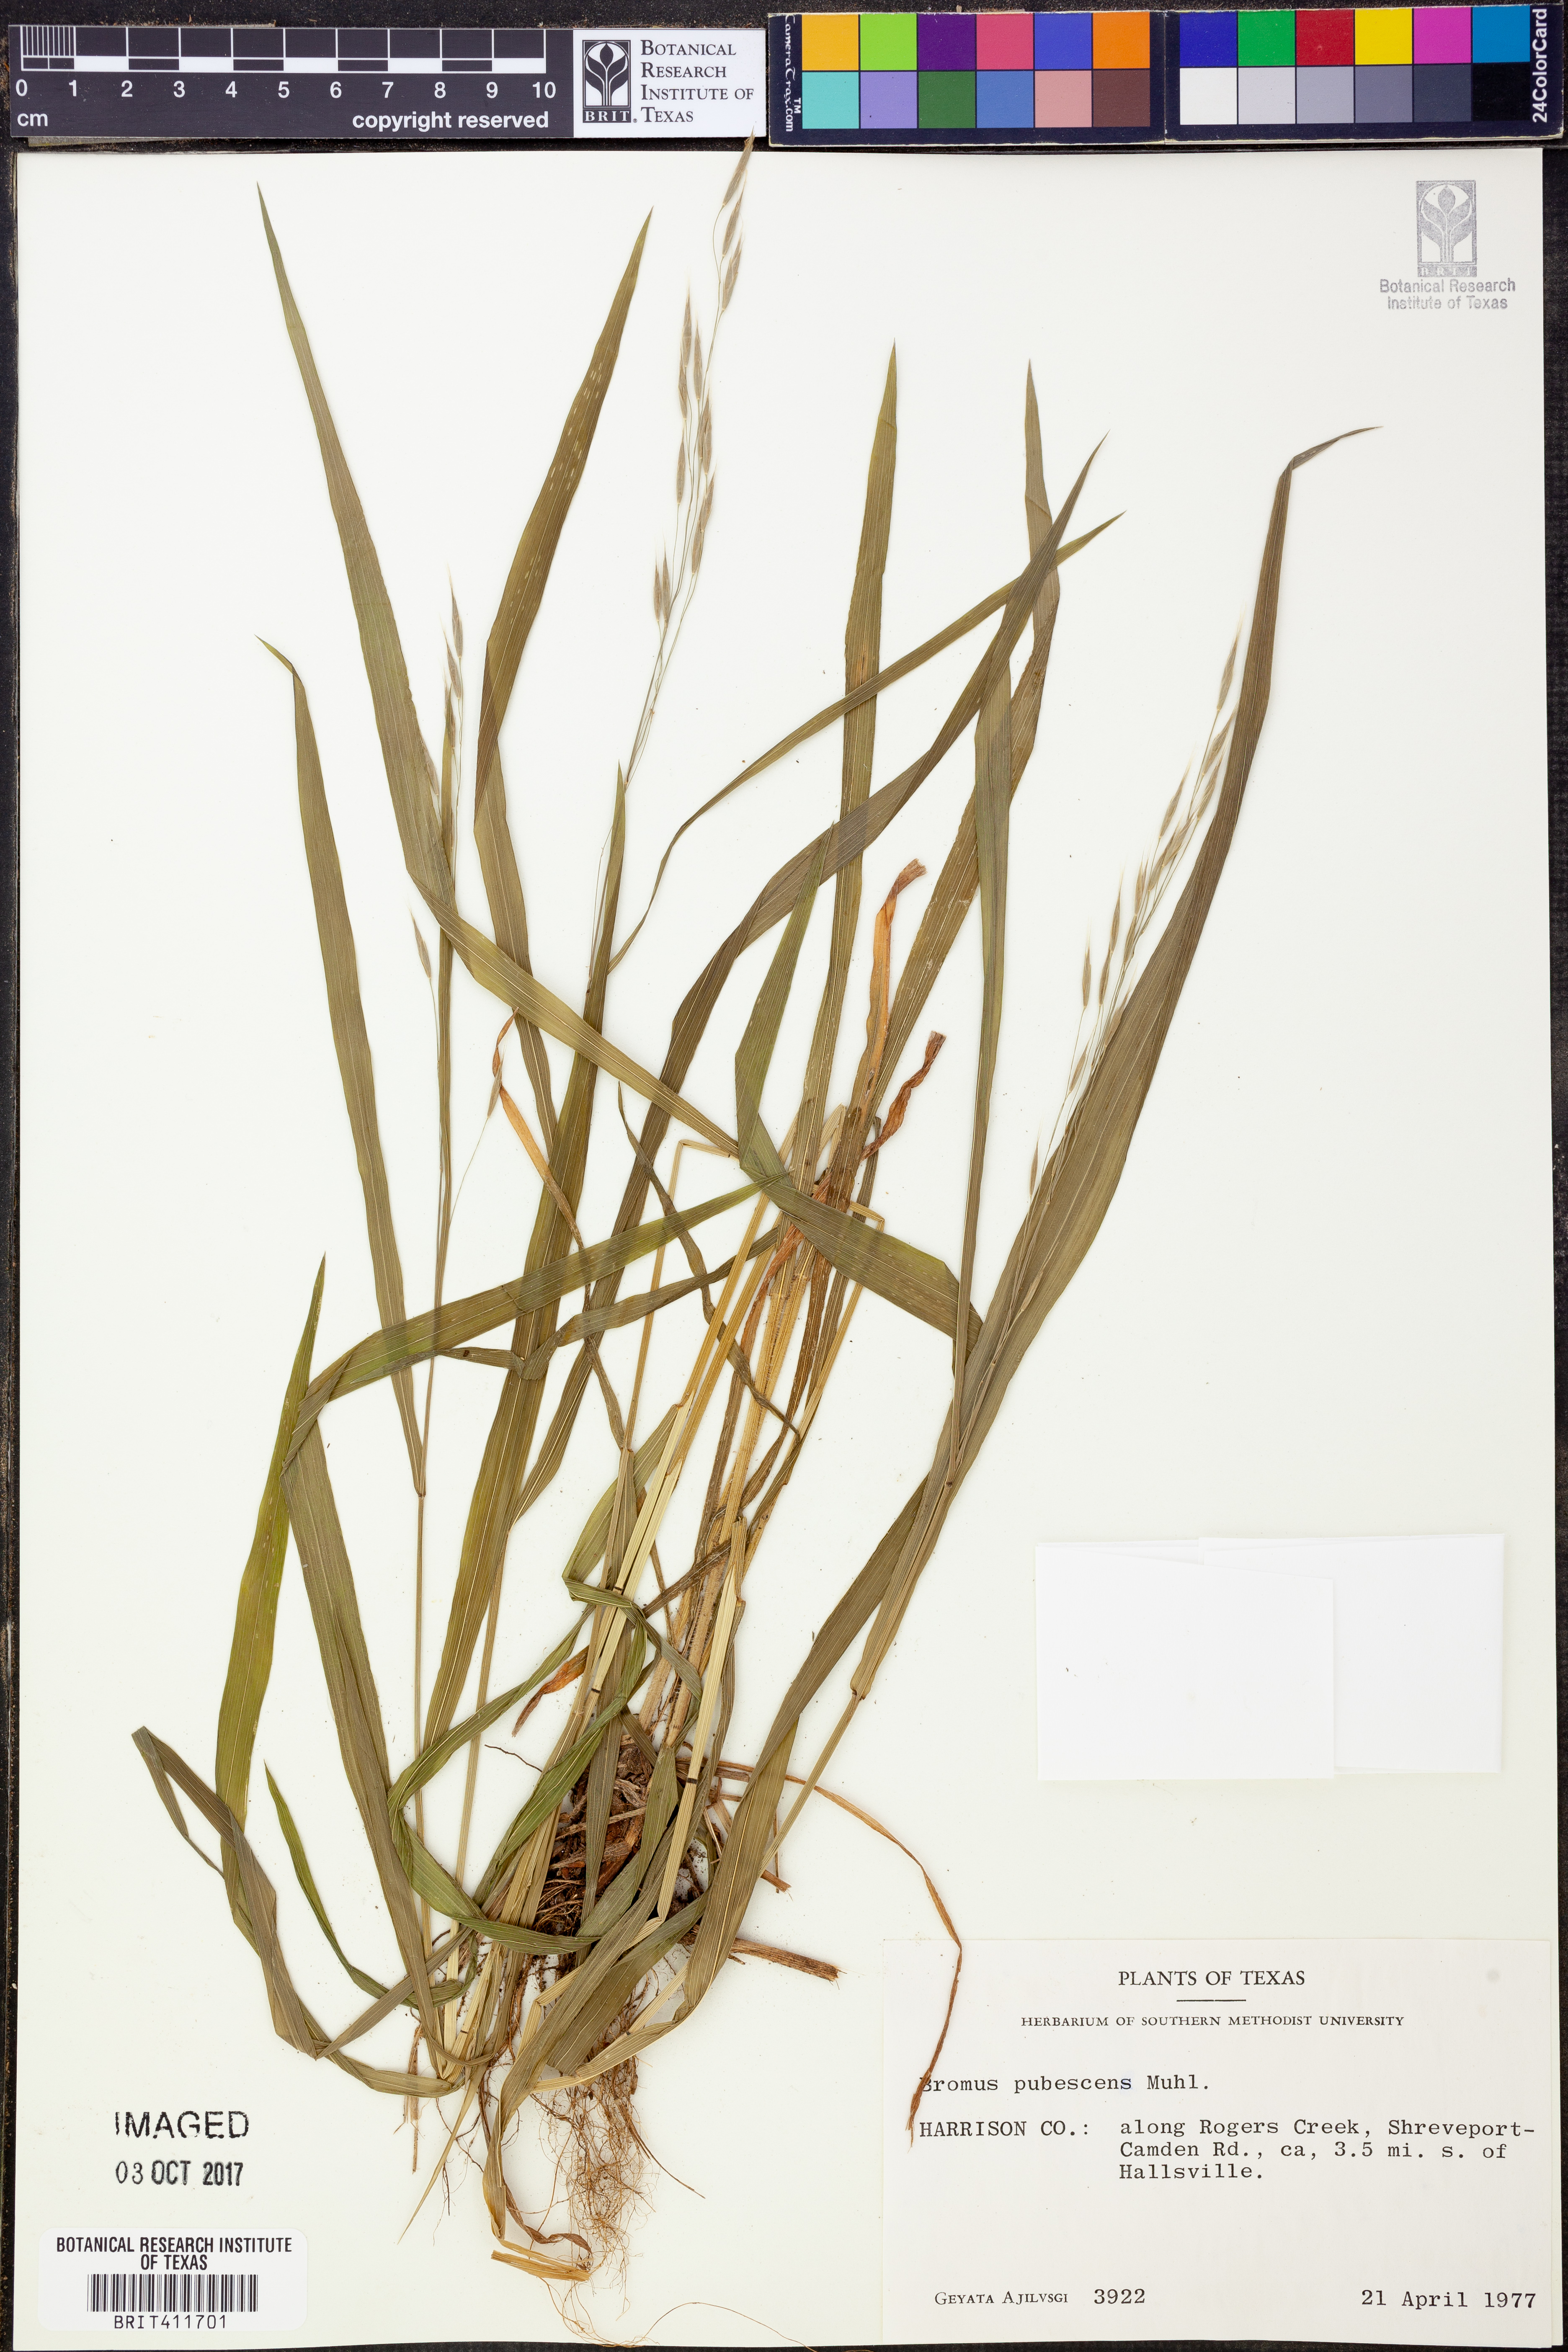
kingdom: Plantae
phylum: Tracheophyta
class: Liliopsida
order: Poales
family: Poaceae
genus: Bromus
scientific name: Bromus pubescens
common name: Hairy wood brome grass
